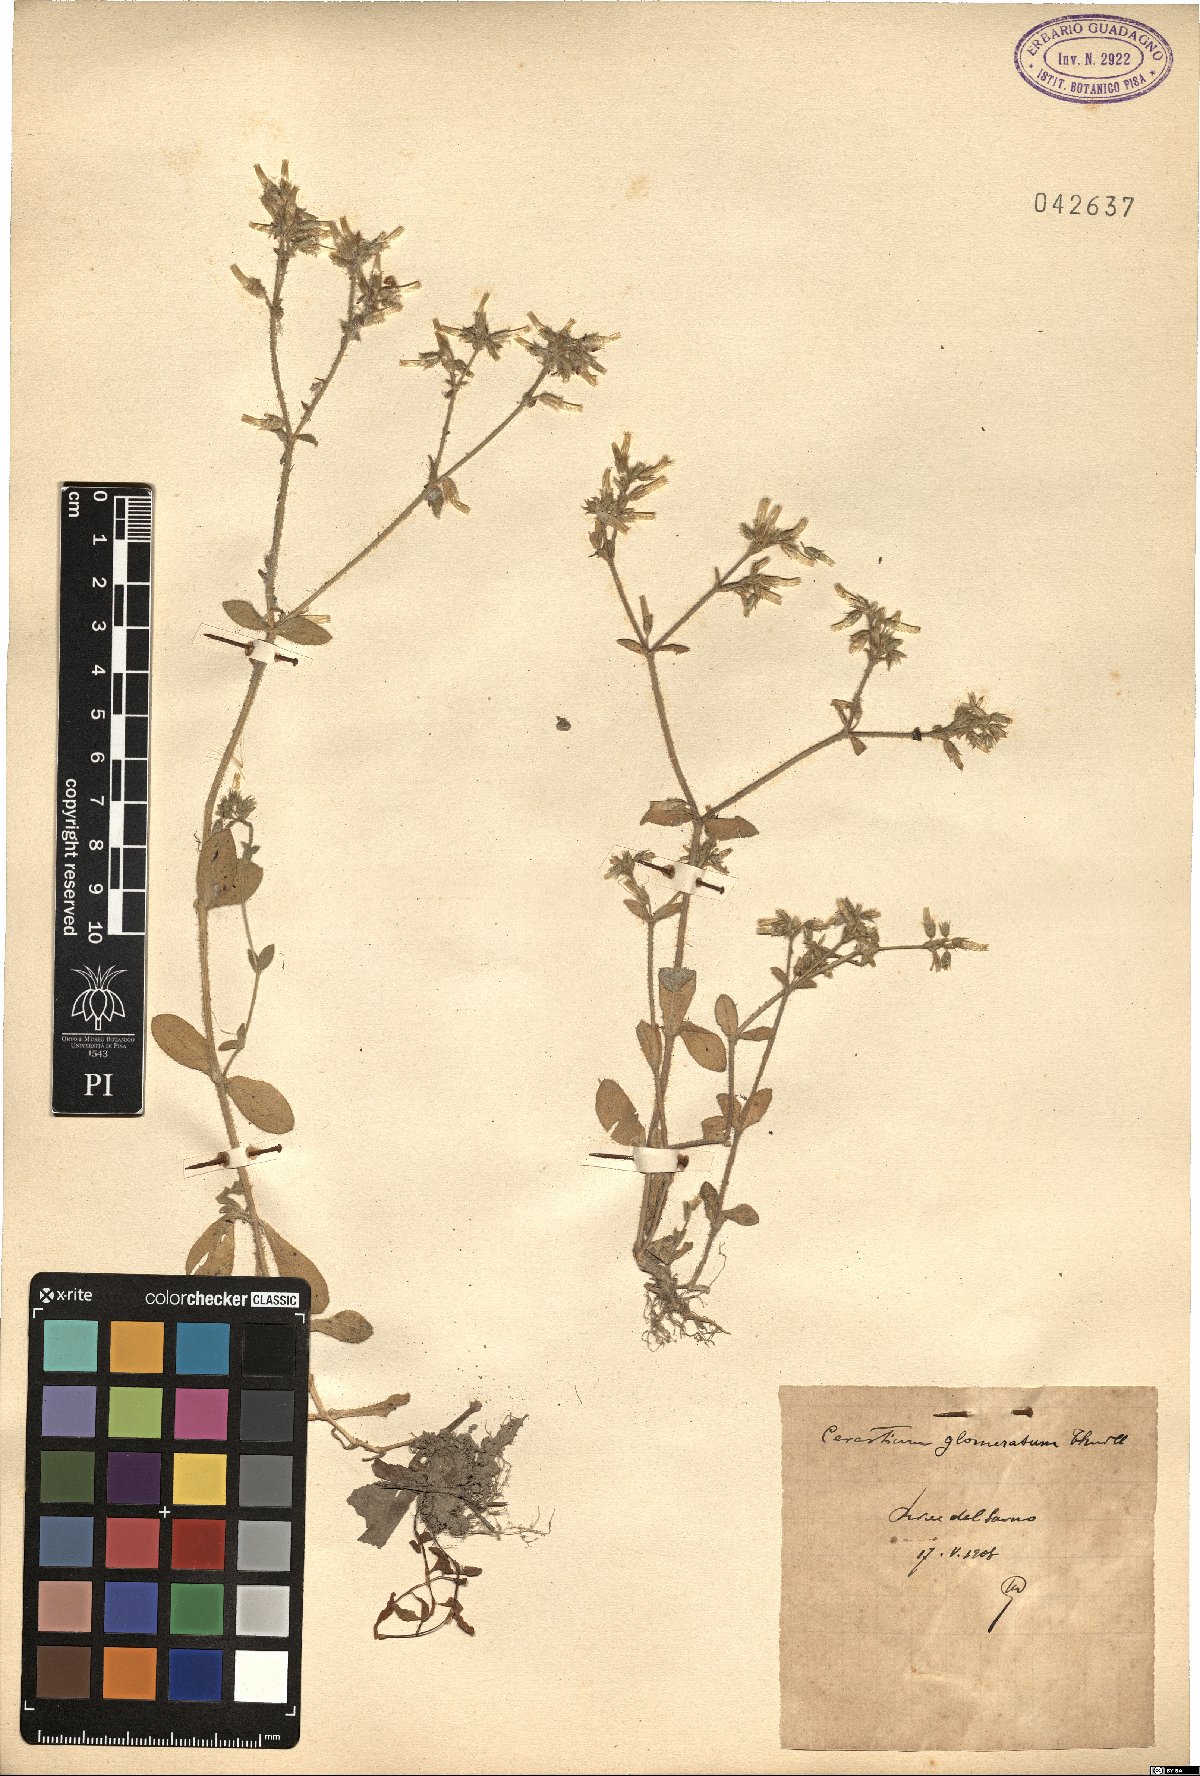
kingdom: Plantae
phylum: Tracheophyta
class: Magnoliopsida
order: Caryophyllales
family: Caryophyllaceae
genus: Cerastium
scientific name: Cerastium glomeratum
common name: Sticky chickweed
